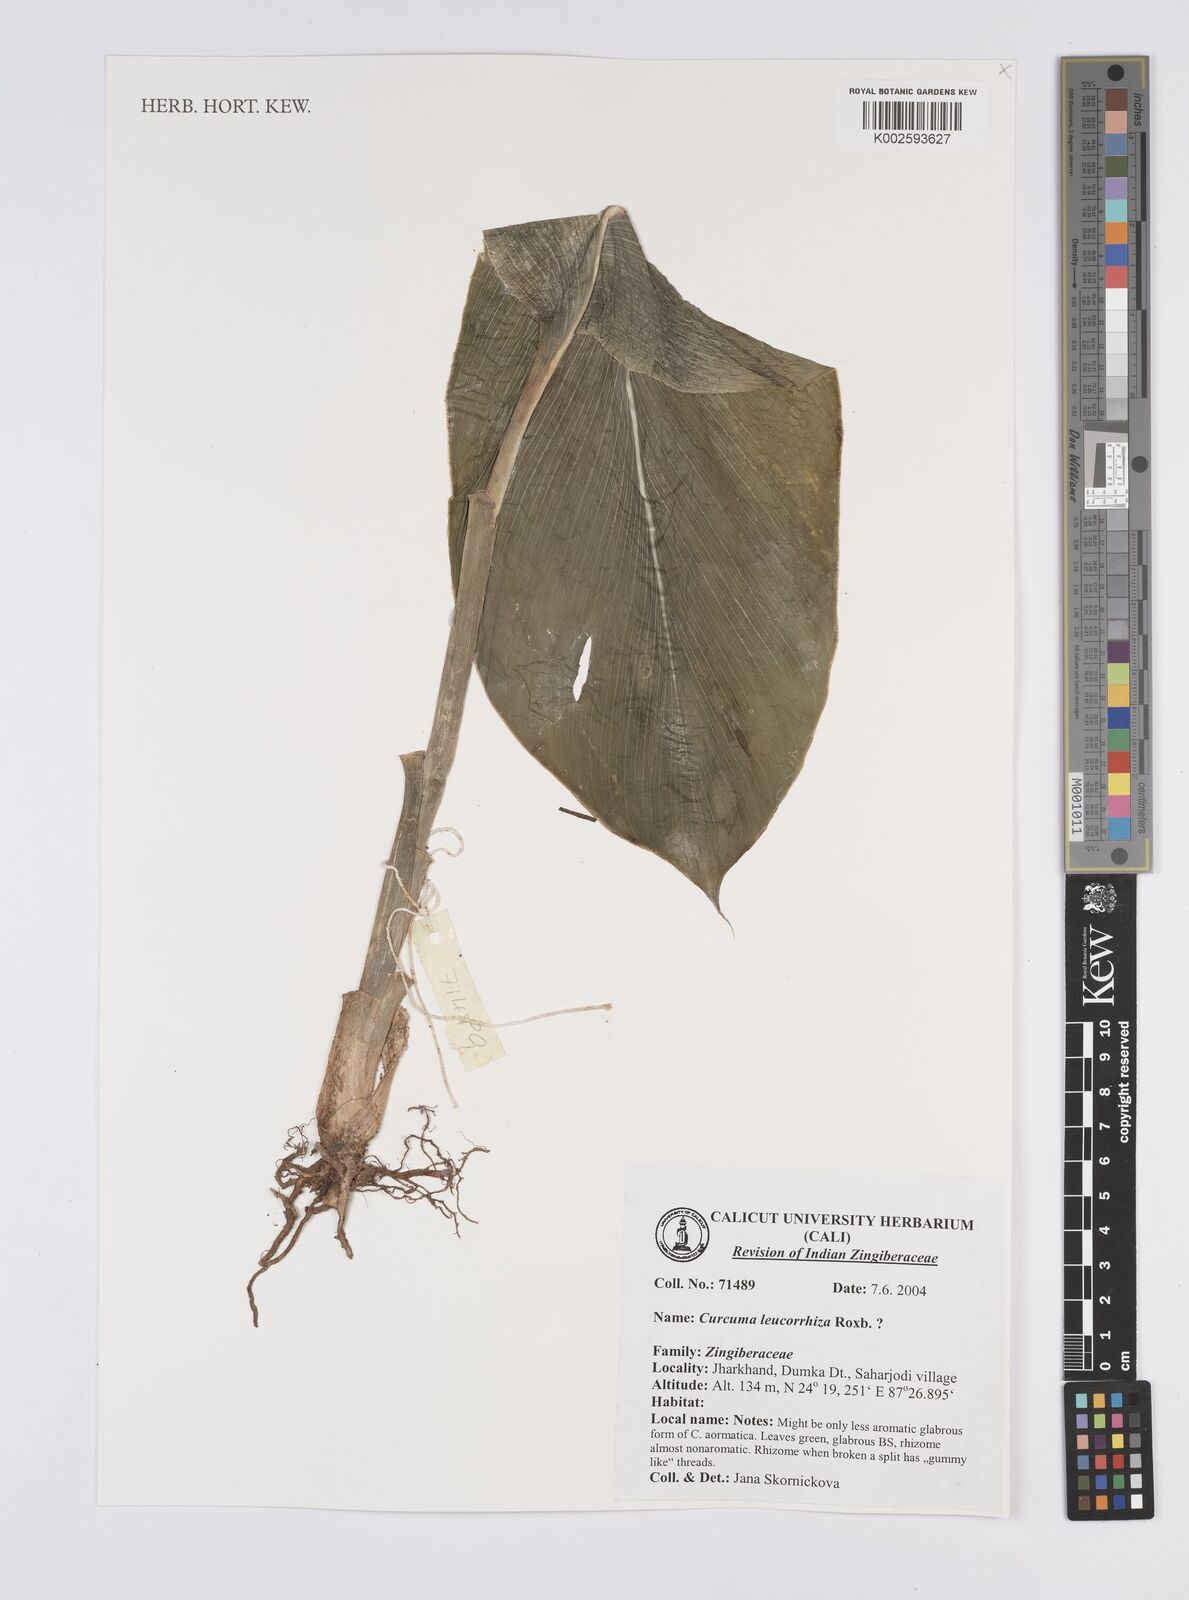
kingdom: Plantae
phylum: Tracheophyta
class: Liliopsida
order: Zingiberales
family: Zingiberaceae
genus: Curcuma
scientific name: Curcuma leucorrhiza
